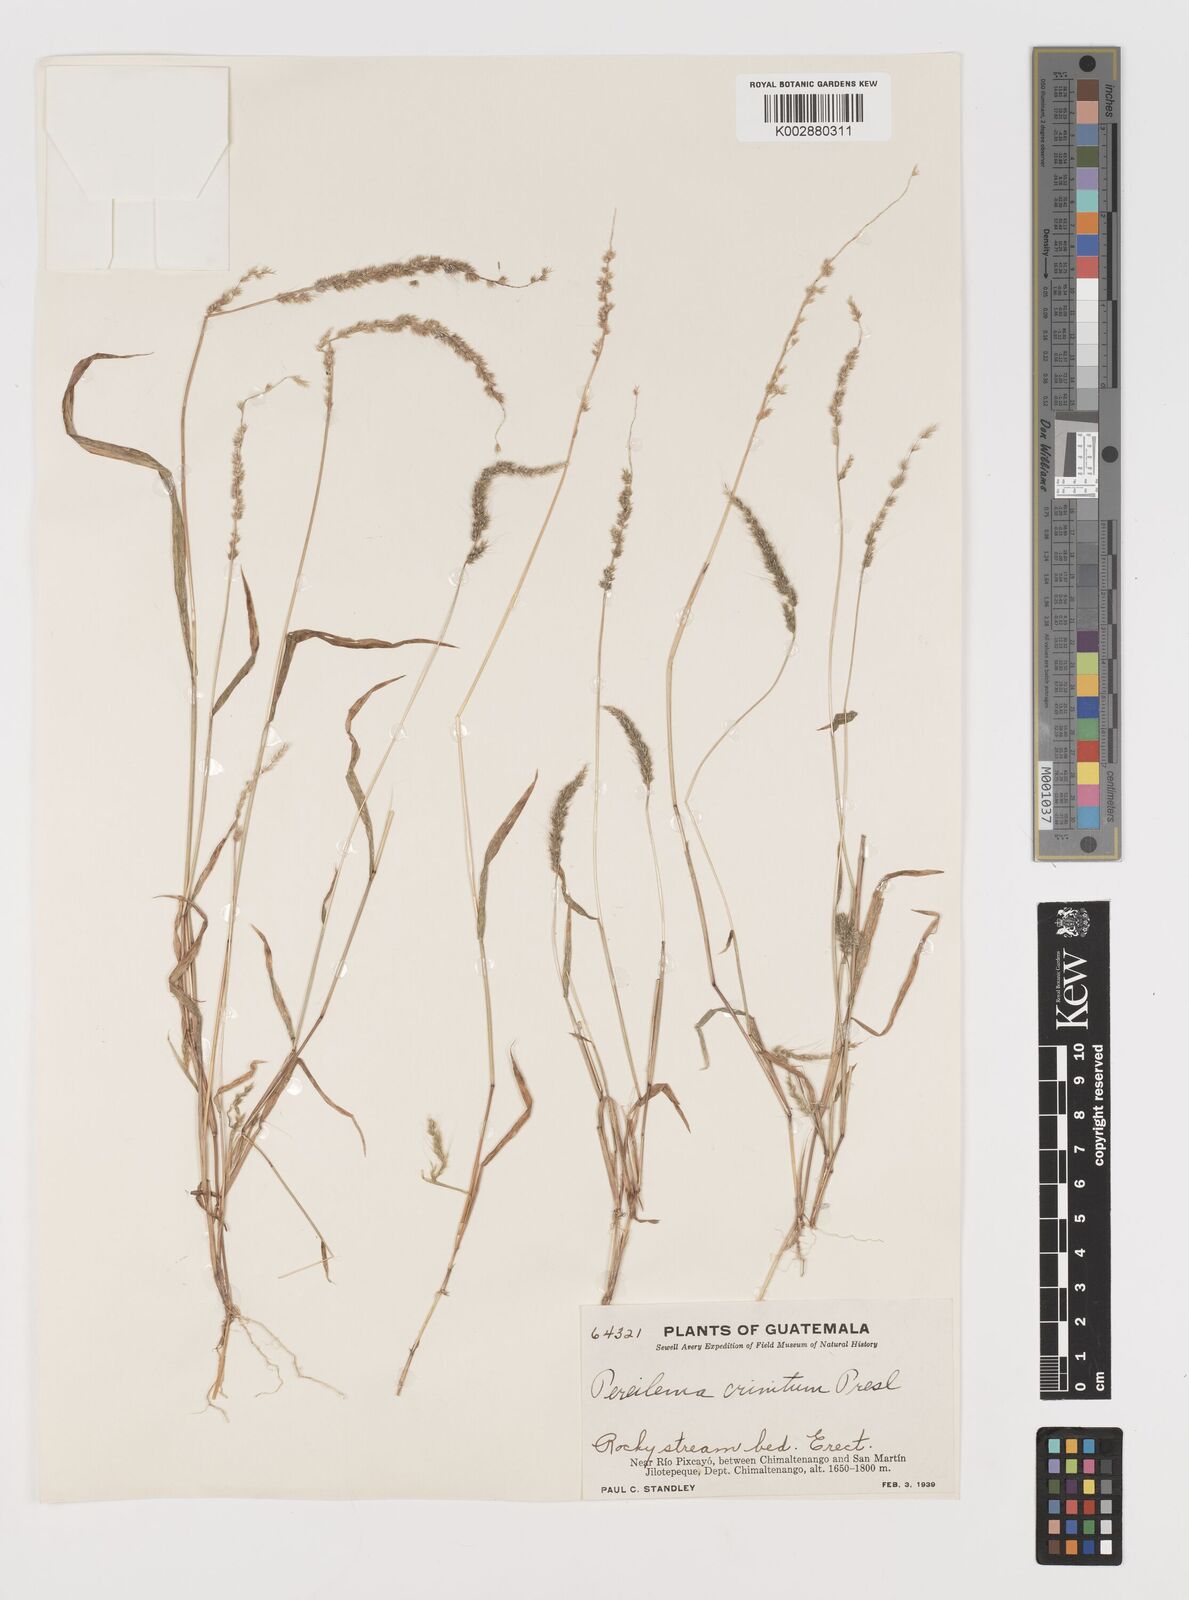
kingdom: Plantae
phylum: Tracheophyta
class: Liliopsida
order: Poales
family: Poaceae
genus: Muhlenbergia
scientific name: Muhlenbergia pereilema
